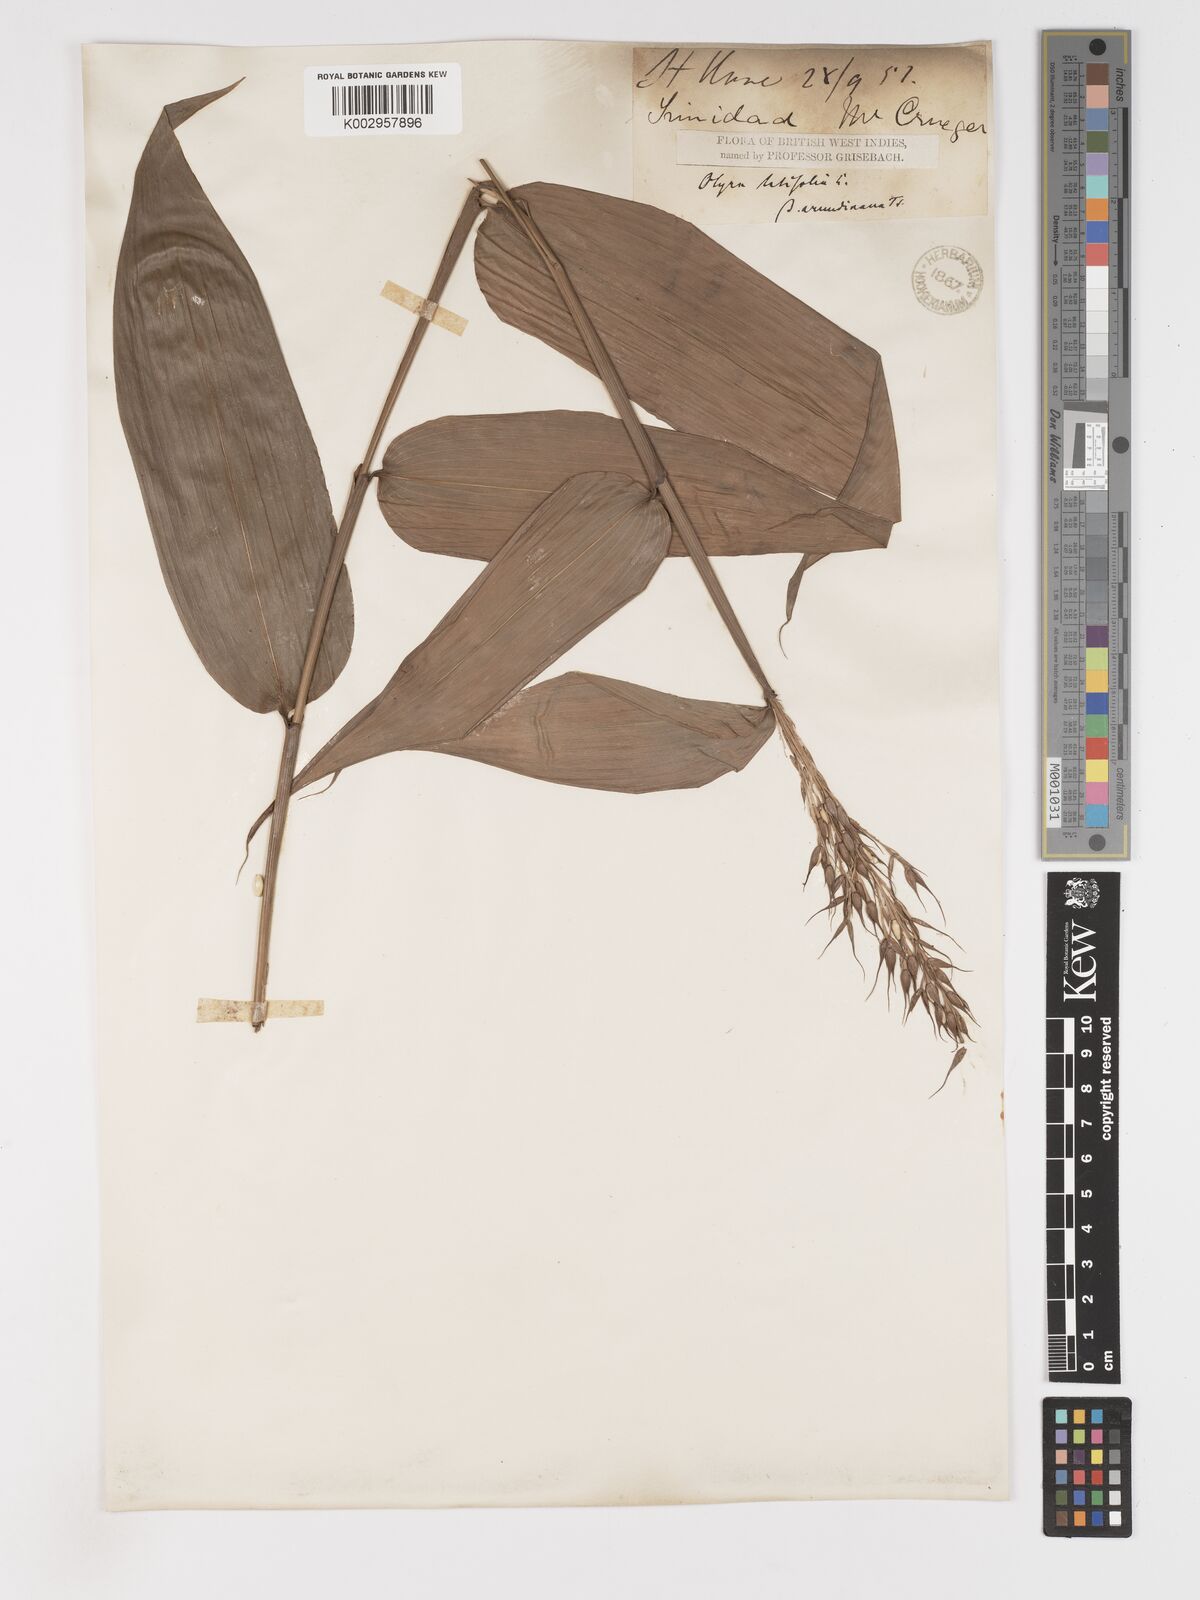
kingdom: Plantae
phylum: Tracheophyta
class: Liliopsida
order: Poales
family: Poaceae
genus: Olyra
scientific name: Olyra latifolia
